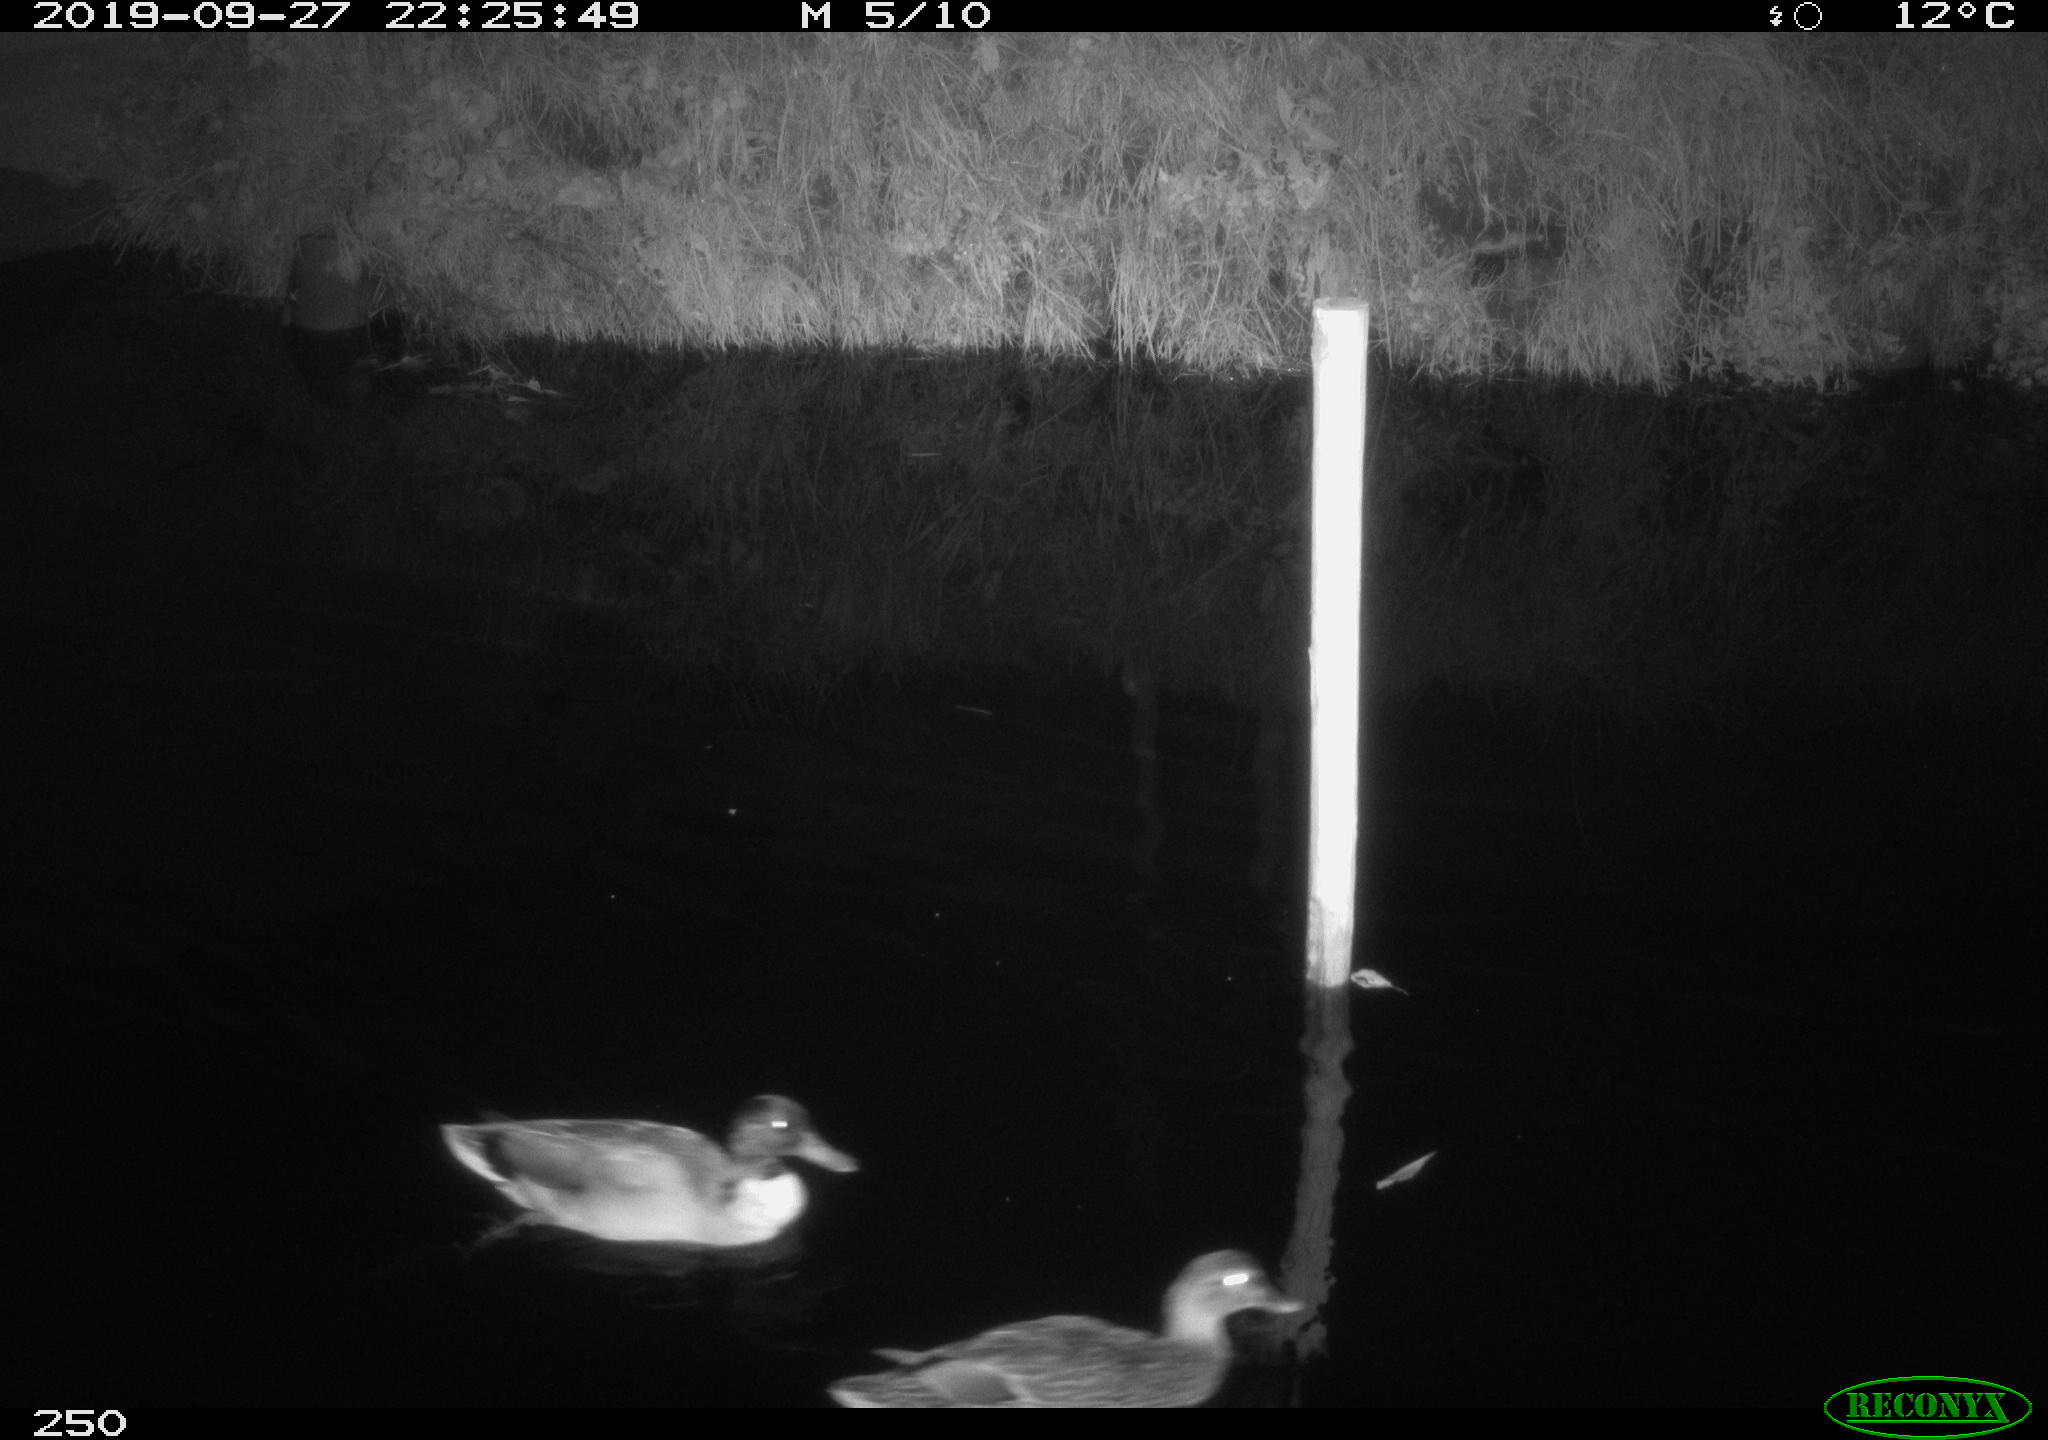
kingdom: Animalia
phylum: Chordata
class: Aves
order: Anseriformes
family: Anatidae
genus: Anas
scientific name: Anas platyrhynchos
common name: Mallard
